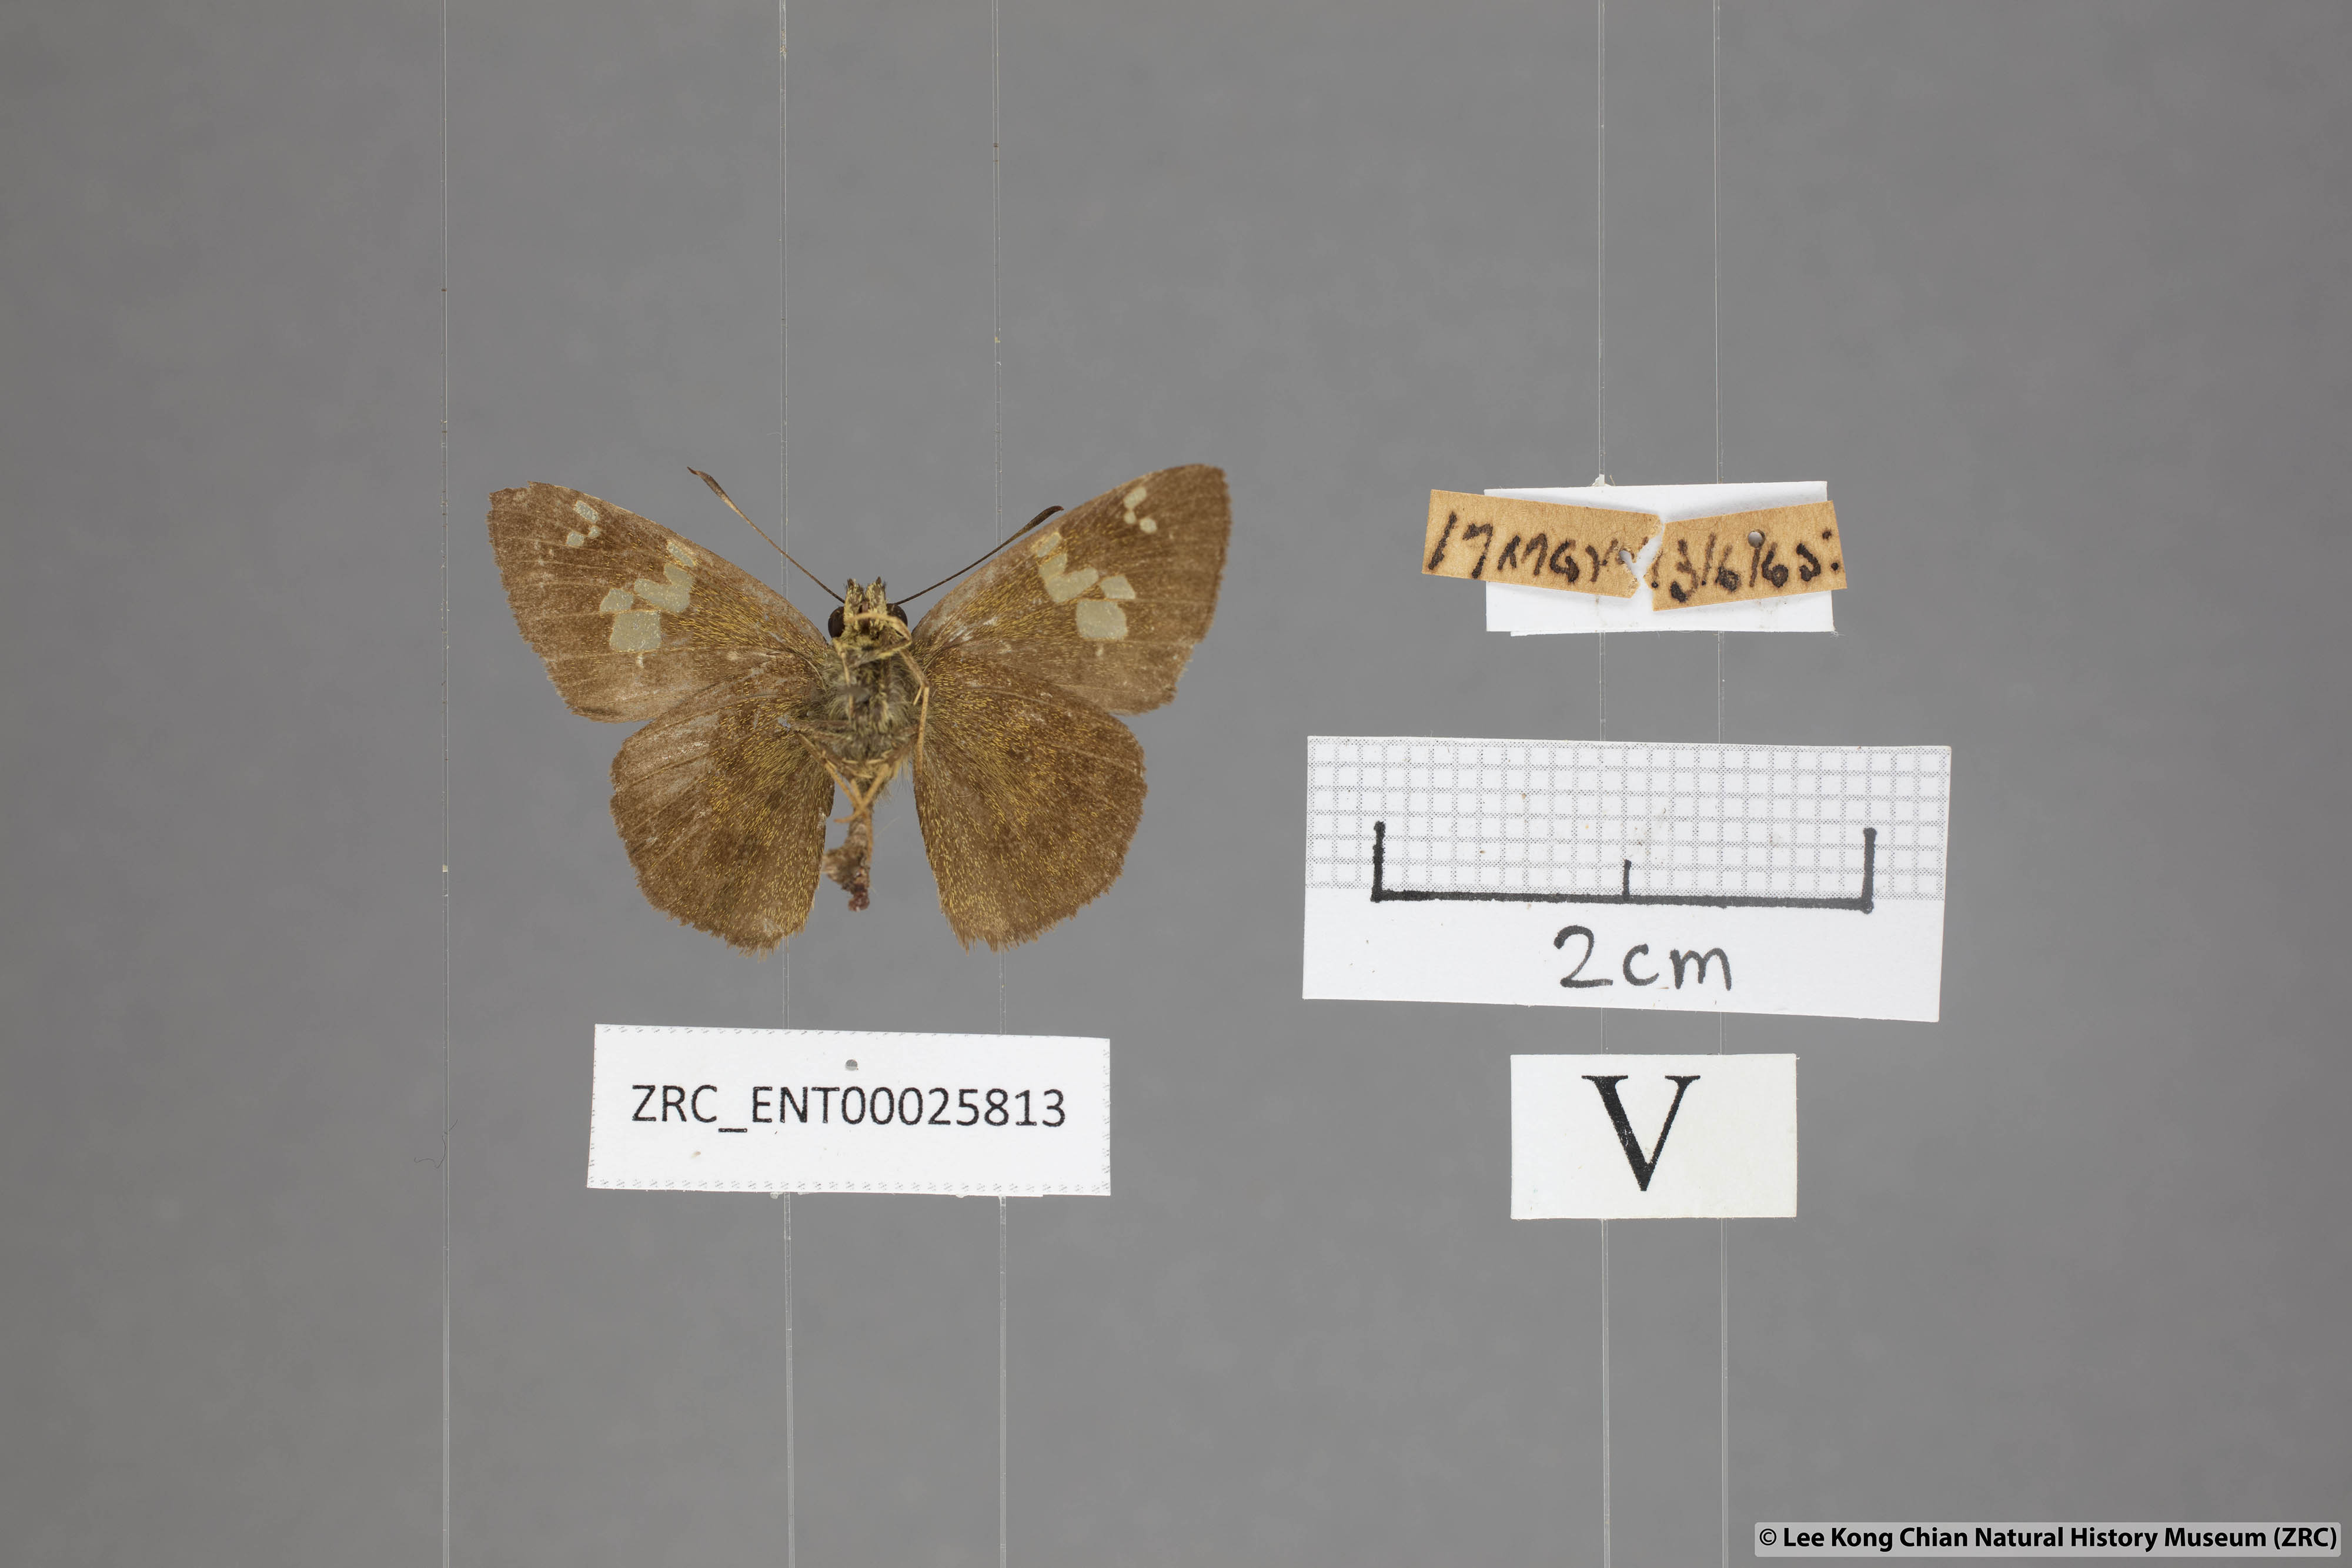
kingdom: Animalia
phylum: Arthropoda
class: Insecta
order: Lepidoptera
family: Hesperiidae
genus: Pseudocoladenia
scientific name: Pseudocoladenia dan
